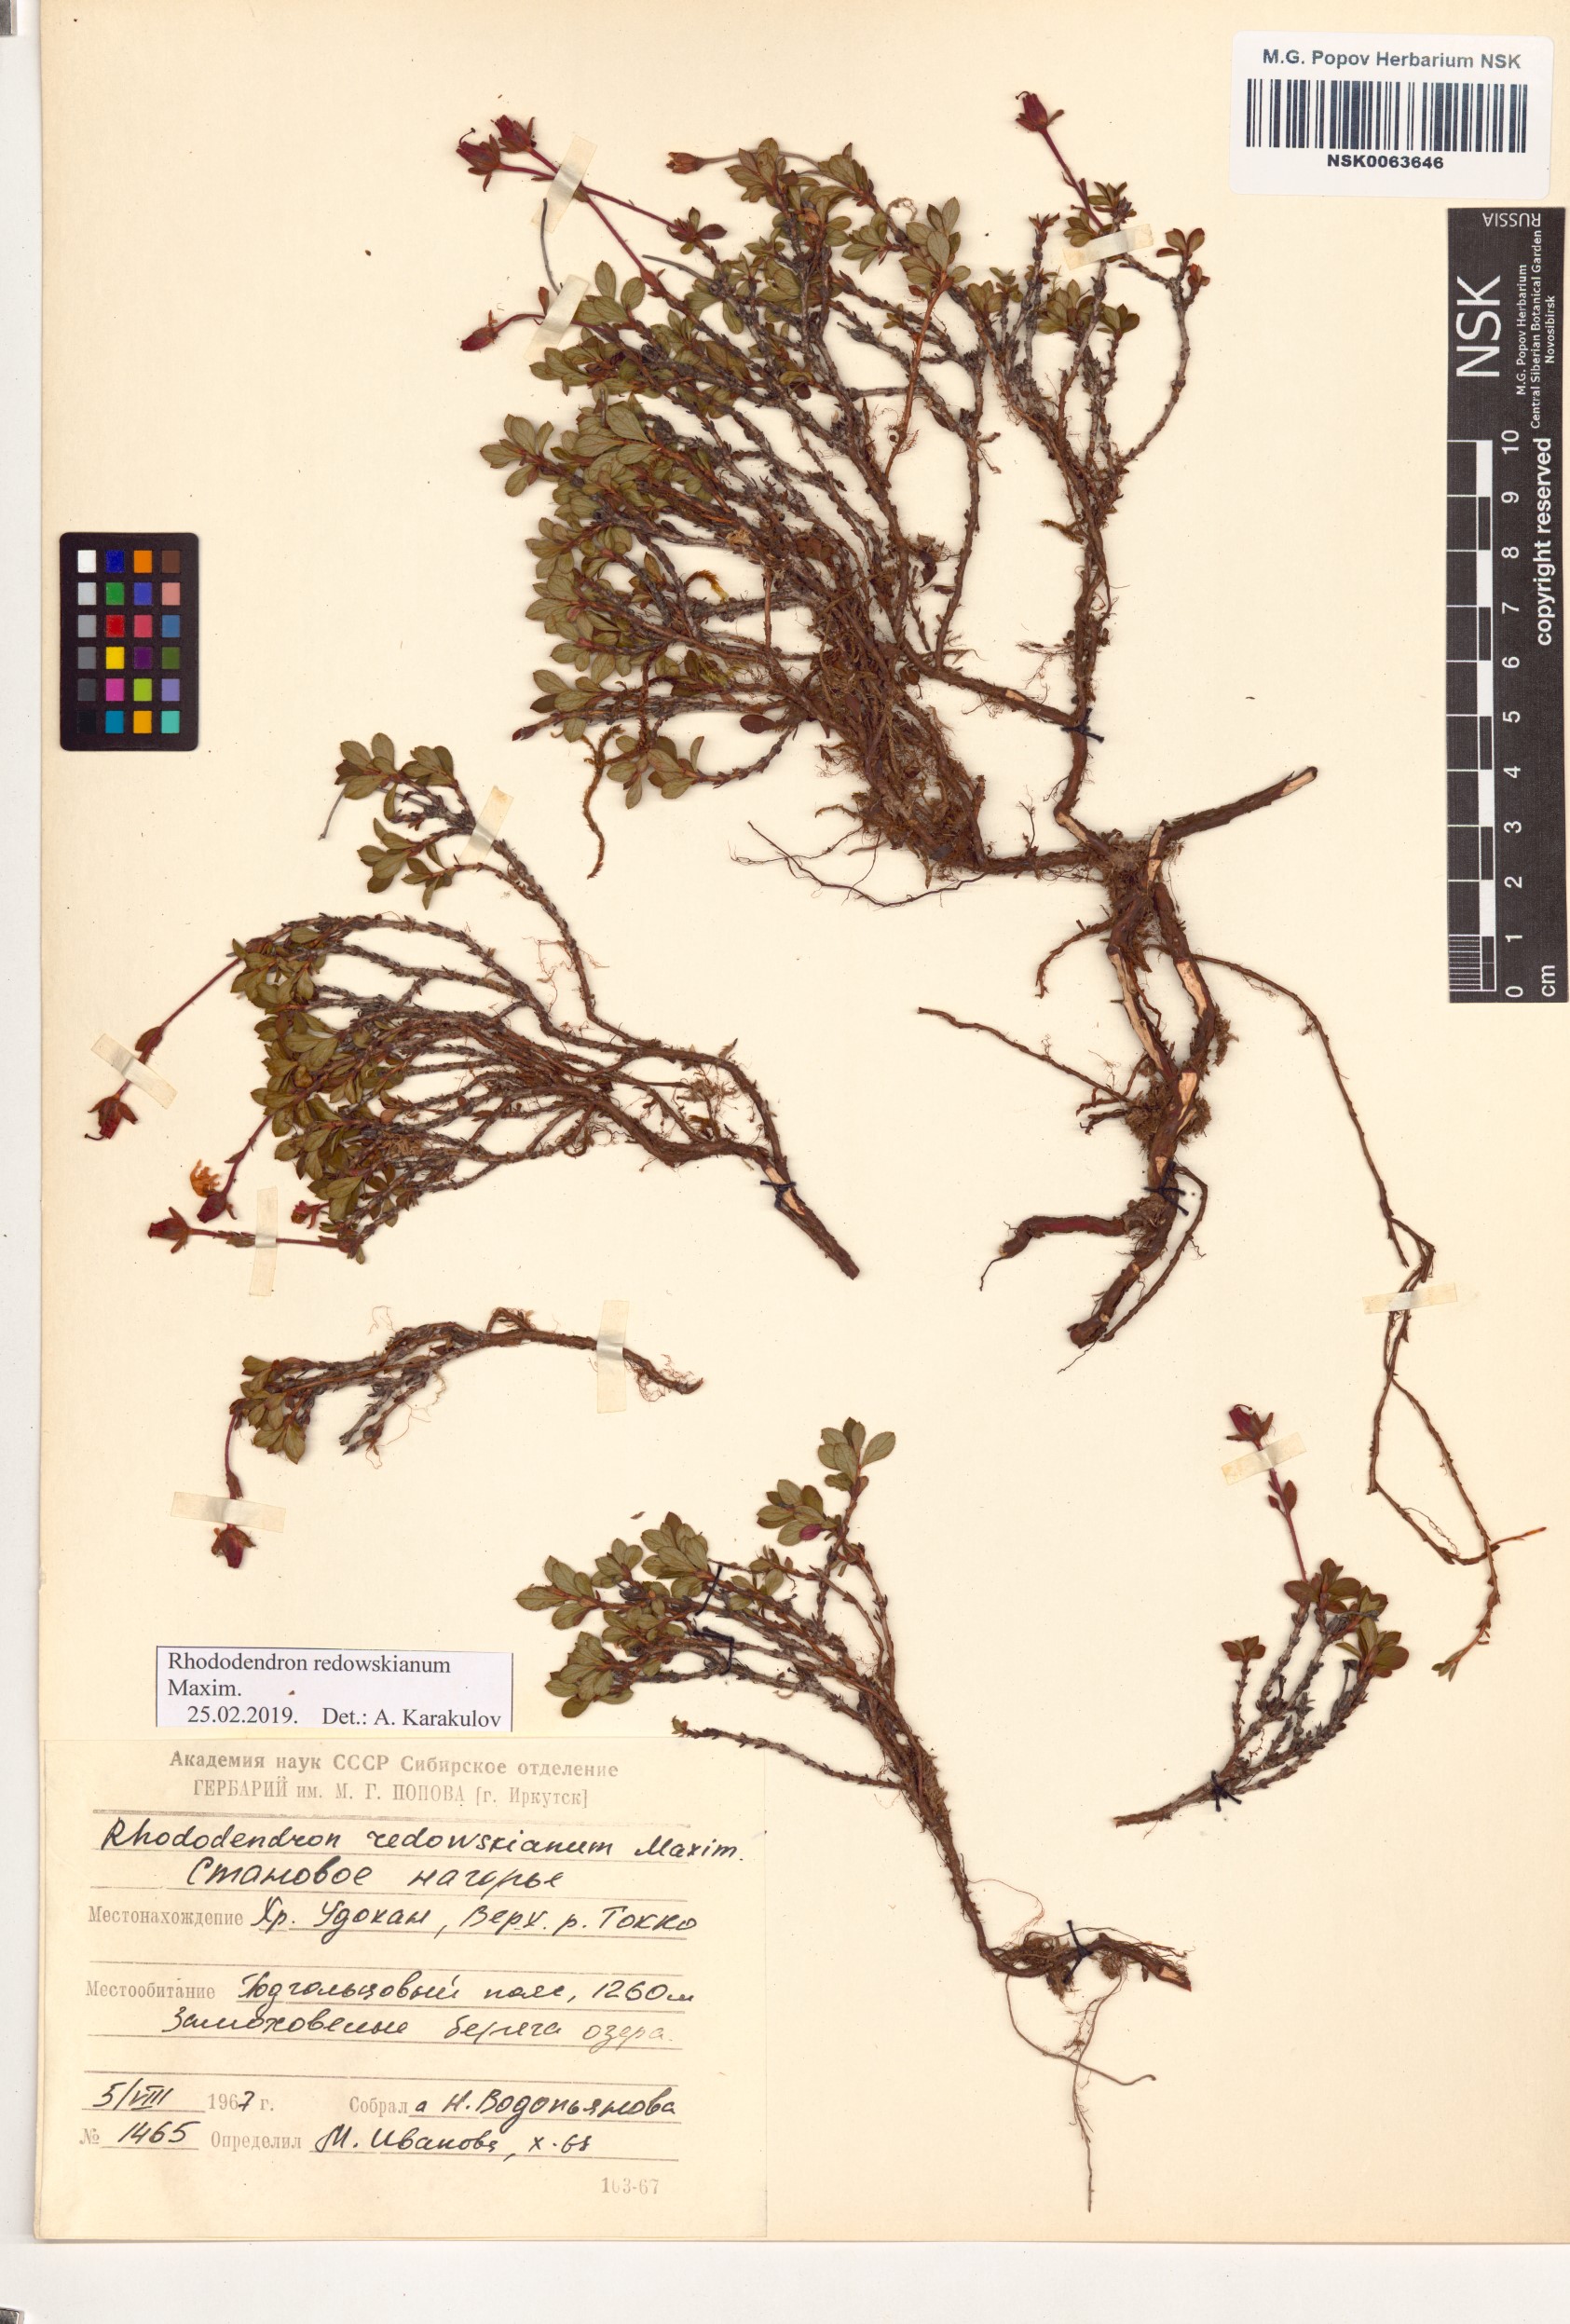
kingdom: Plantae
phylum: Tracheophyta
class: Magnoliopsida
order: Ericales
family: Ericaceae
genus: Rhododendron
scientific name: Rhododendron redowskianum
